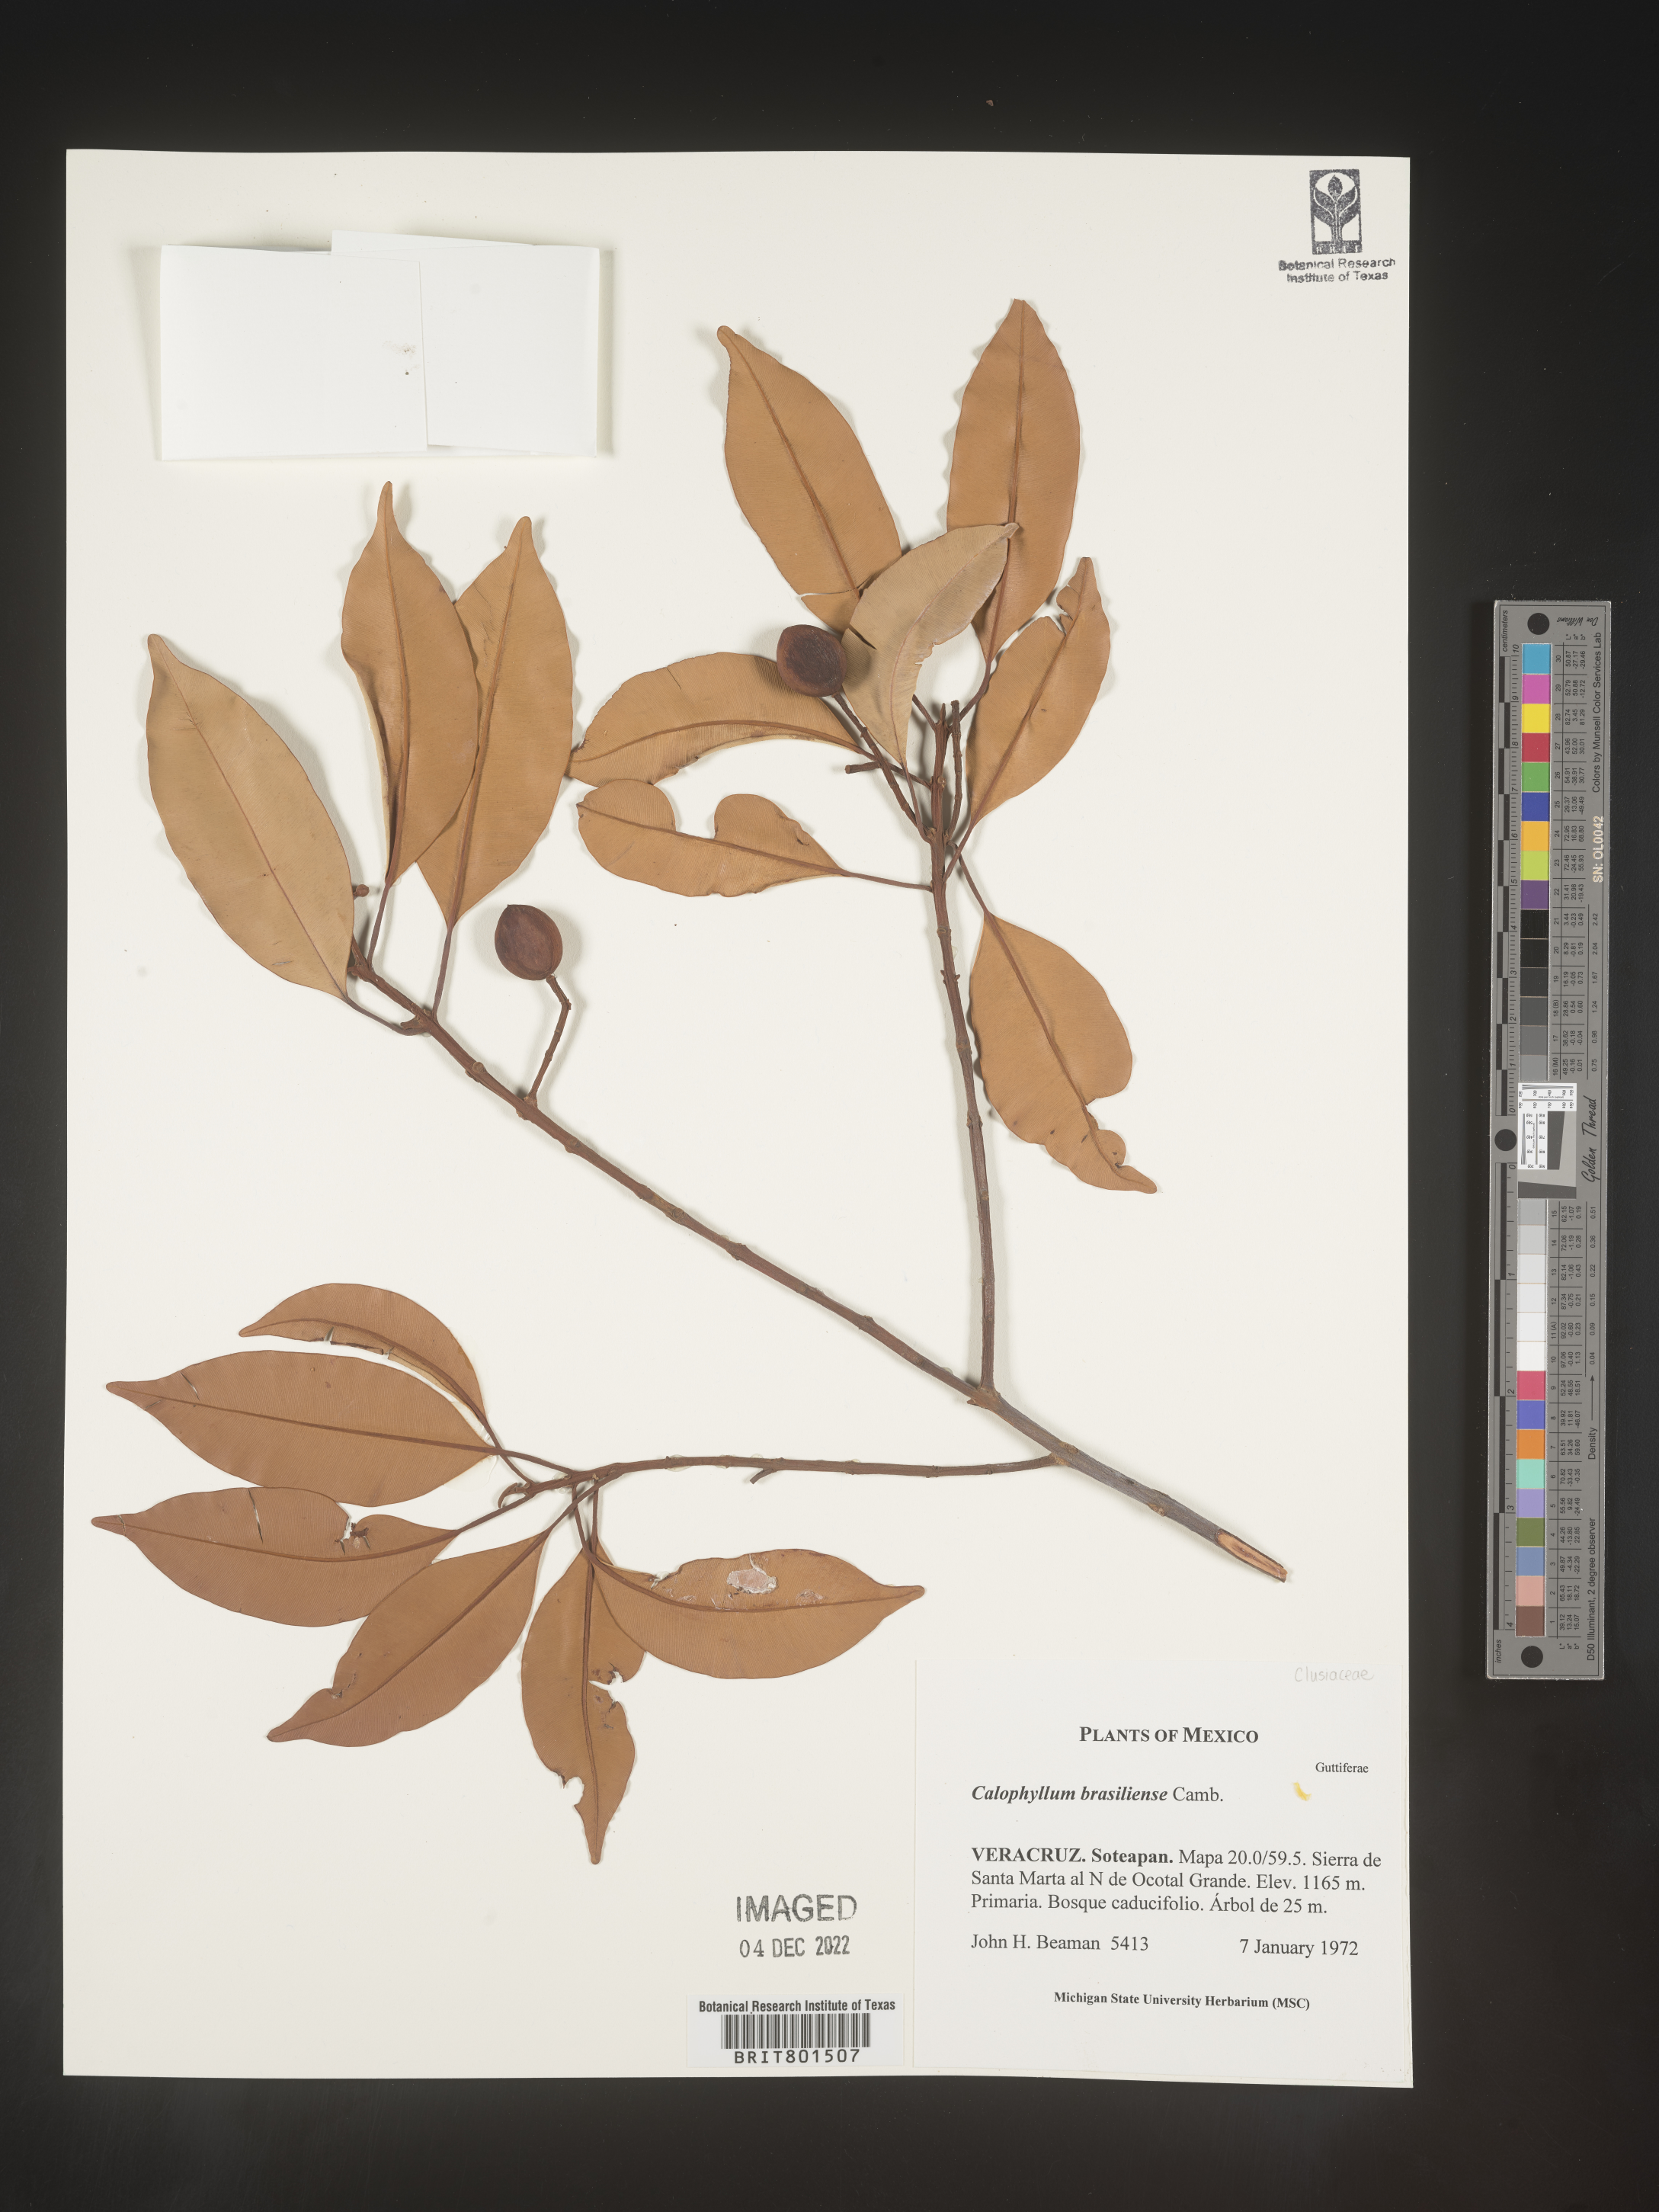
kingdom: Plantae
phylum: Tracheophyta
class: Magnoliopsida
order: Malpighiales
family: Calophyllaceae
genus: Calophyllum
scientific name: Calophyllum
